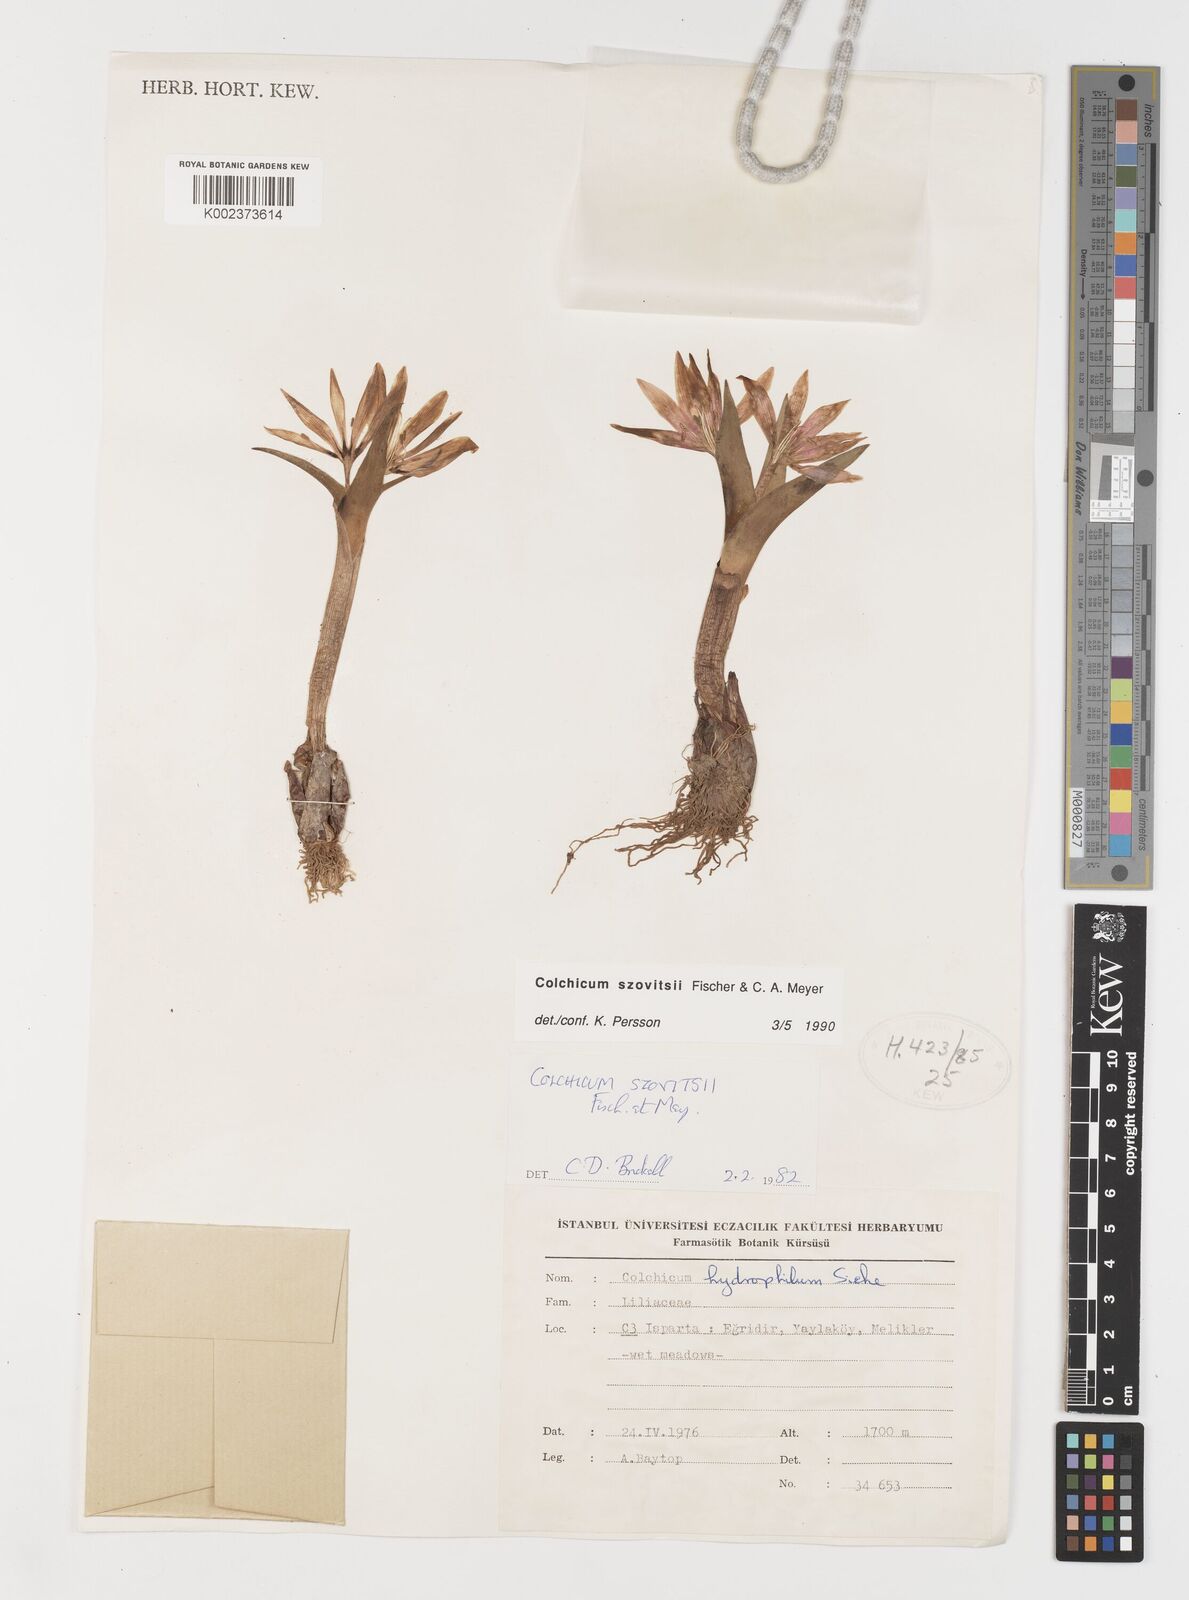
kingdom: Plantae
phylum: Tracheophyta
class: Liliopsida
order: Liliales
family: Colchicaceae
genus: Colchicum
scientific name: Colchicum szovitsii
